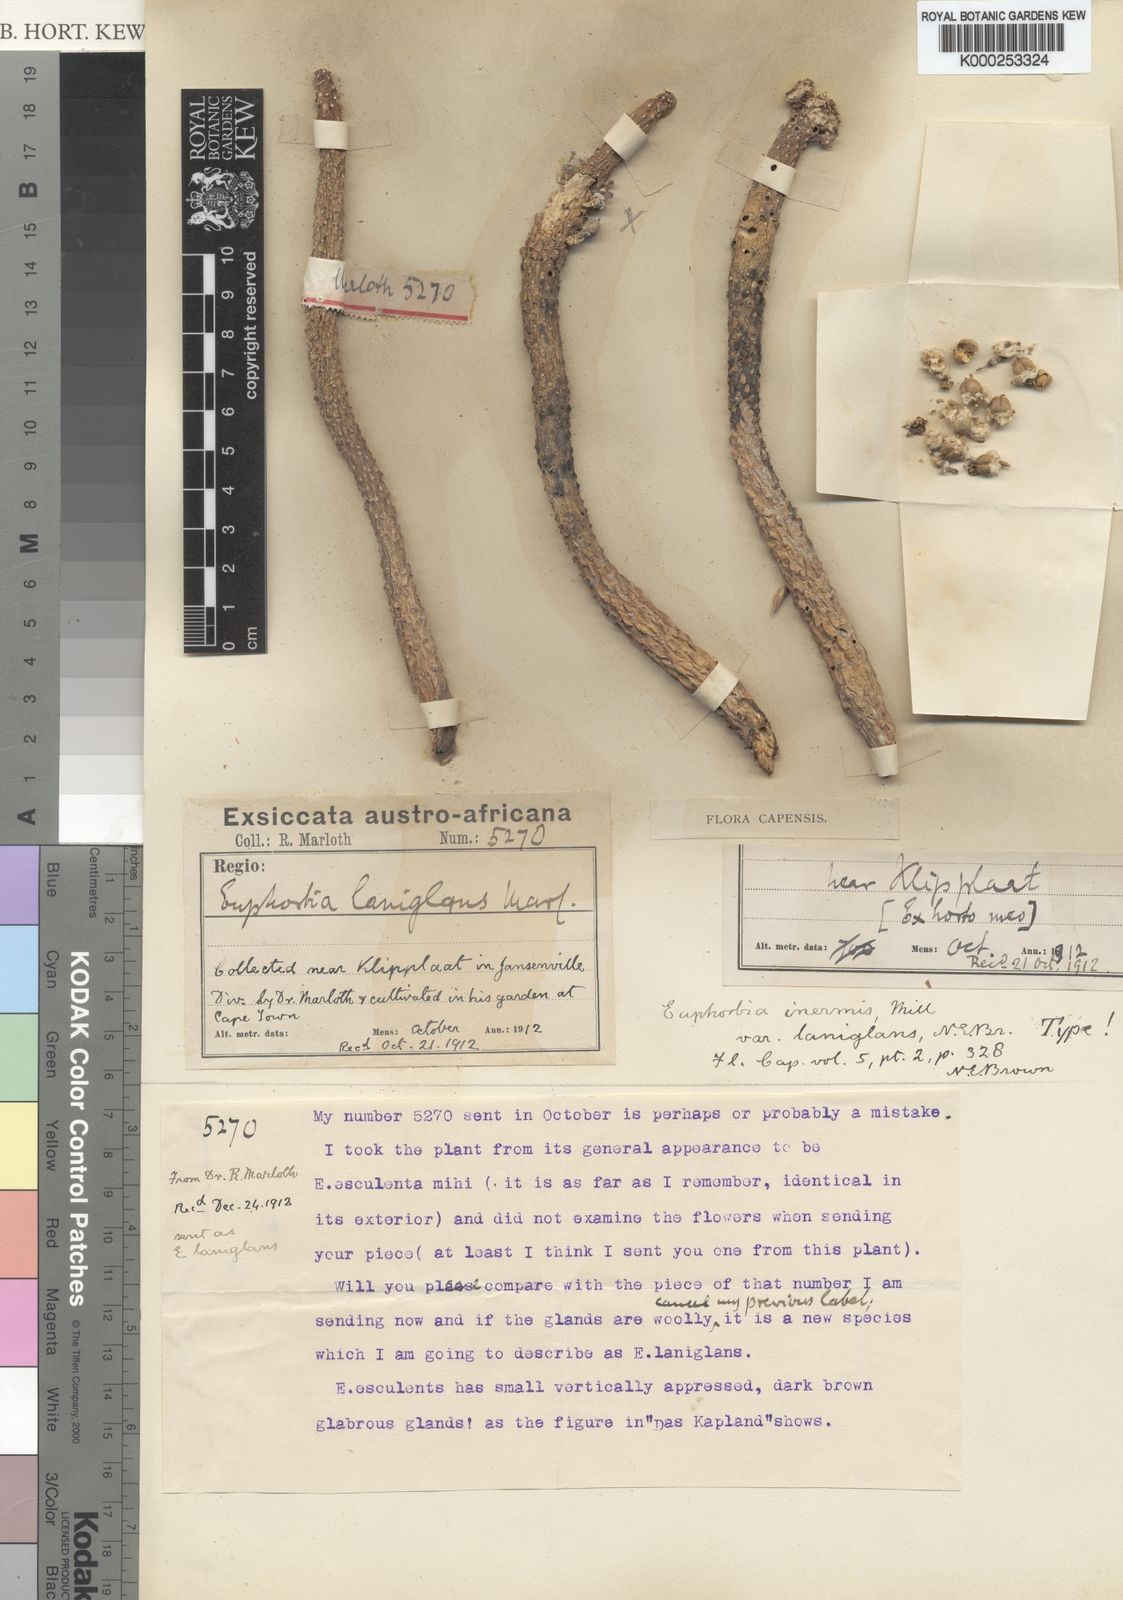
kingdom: Plantae
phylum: Tracheophyta
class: Magnoliopsida
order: Malpighiales
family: Euphorbiaceae
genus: Euphorbia
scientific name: Euphorbia esculenta
